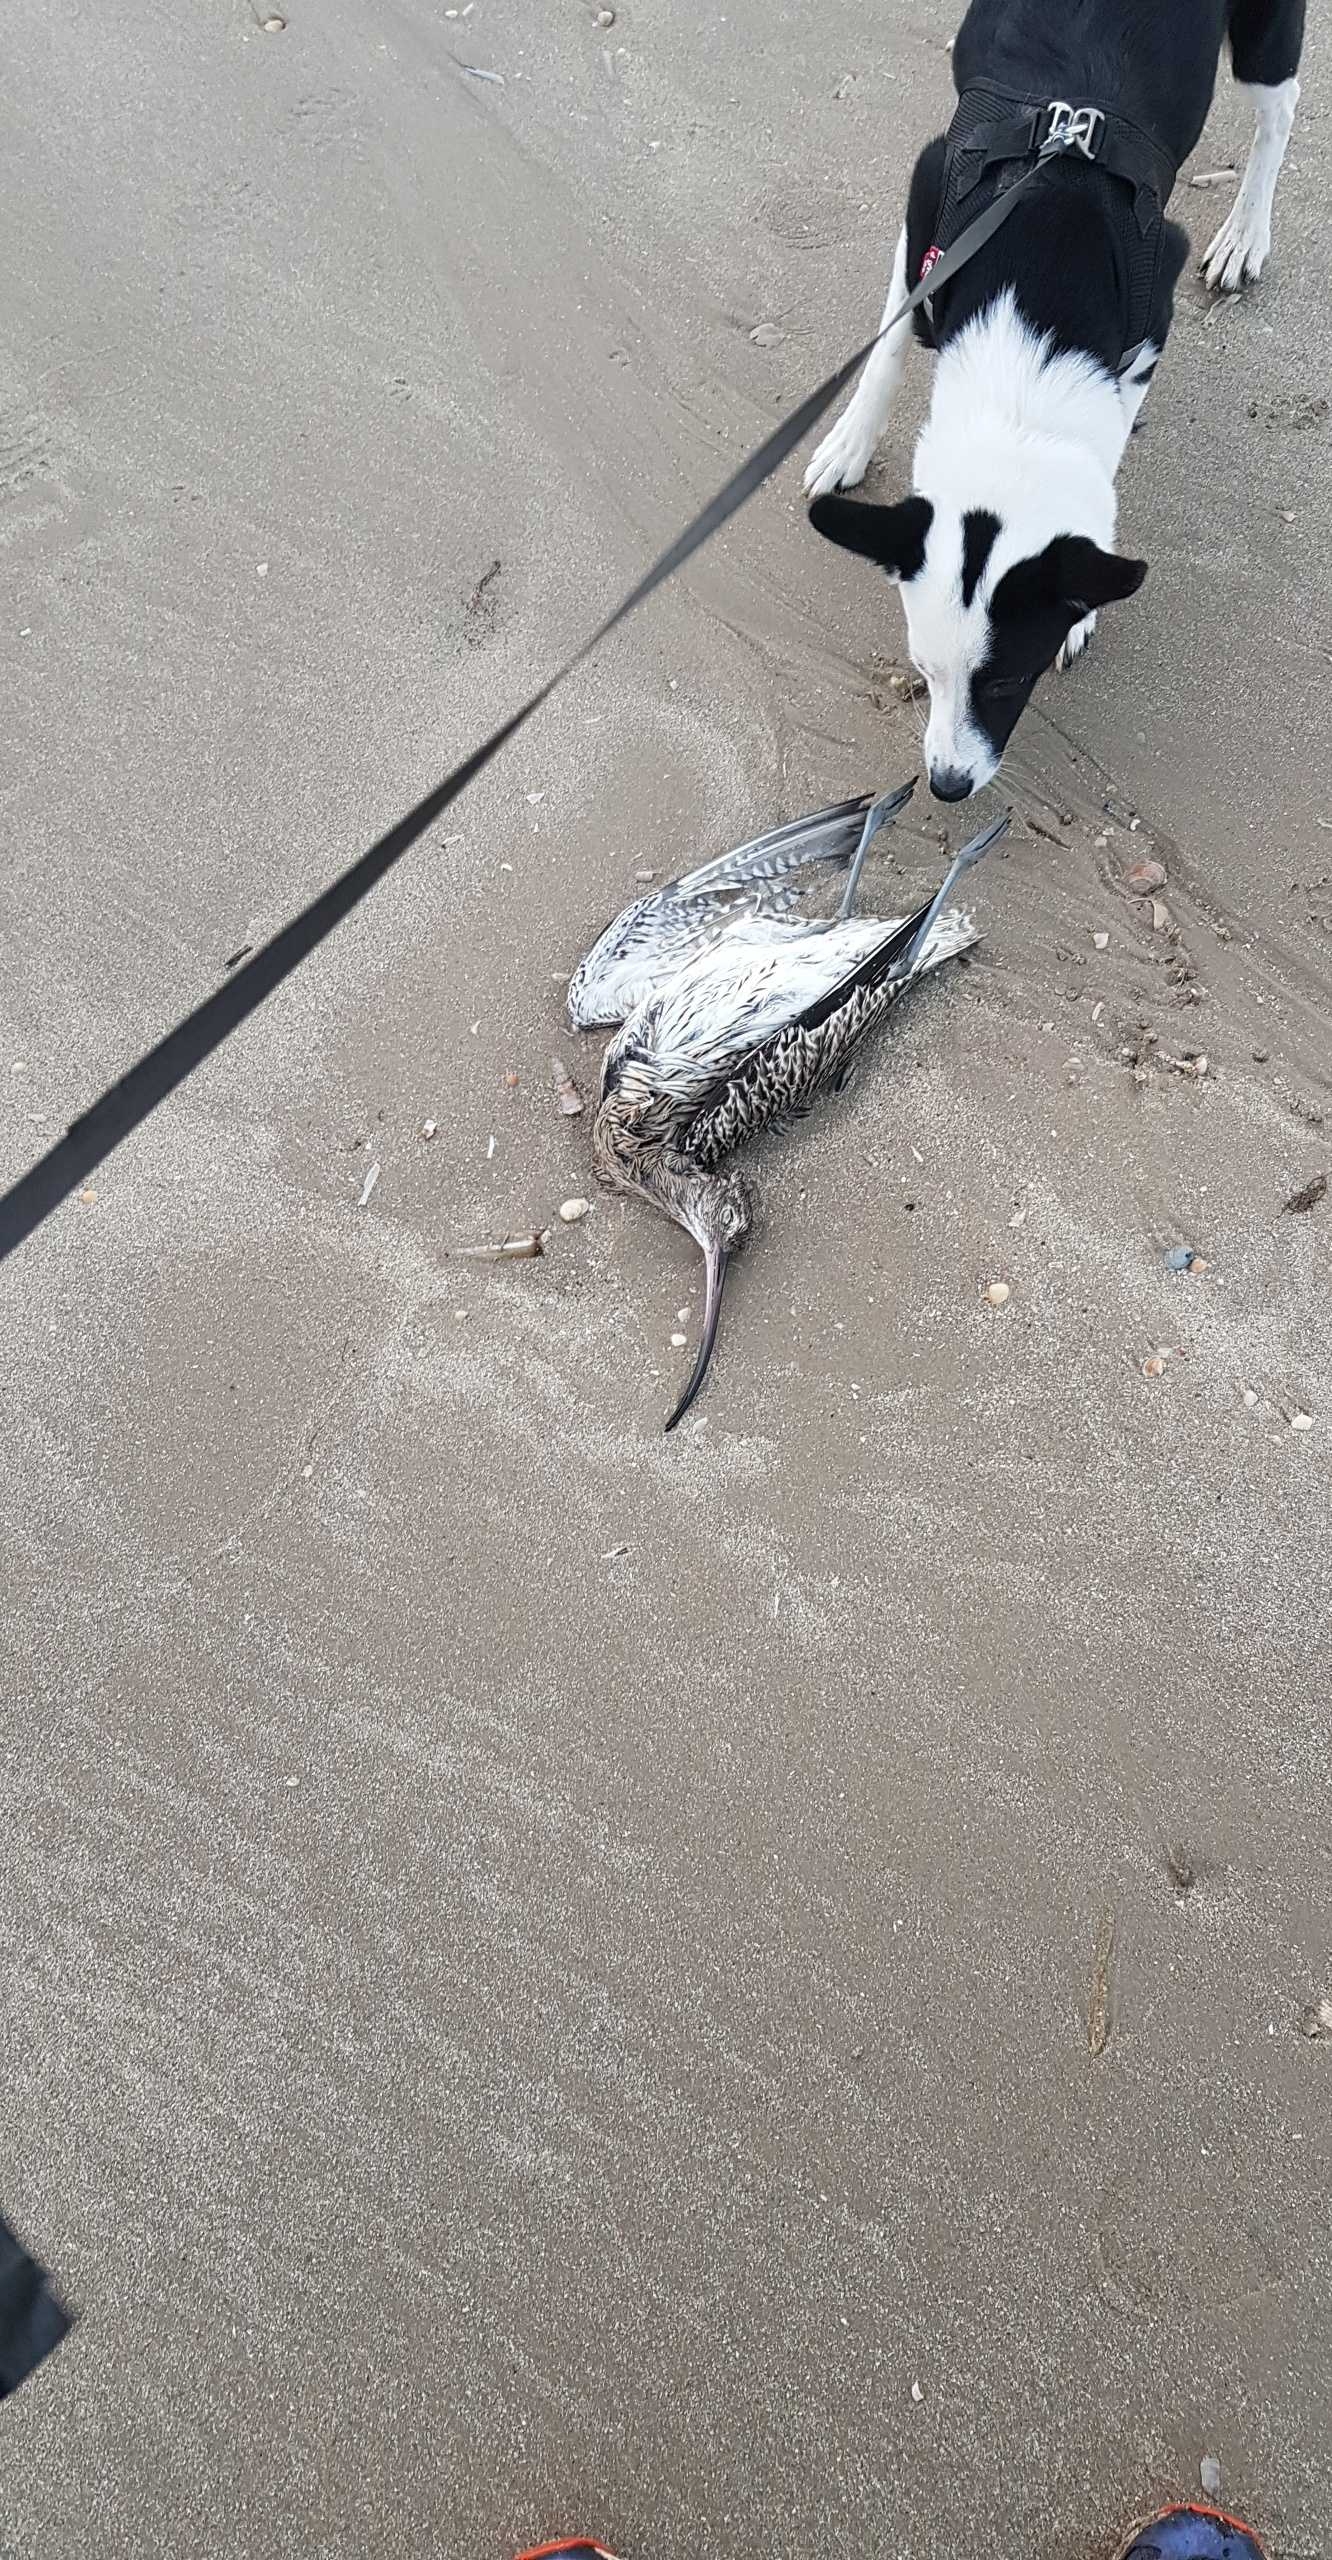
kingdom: Animalia
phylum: Chordata
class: Aves
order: Charadriiformes
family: Scolopacidae
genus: Numenius
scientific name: Numenius arquata
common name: Storspove
